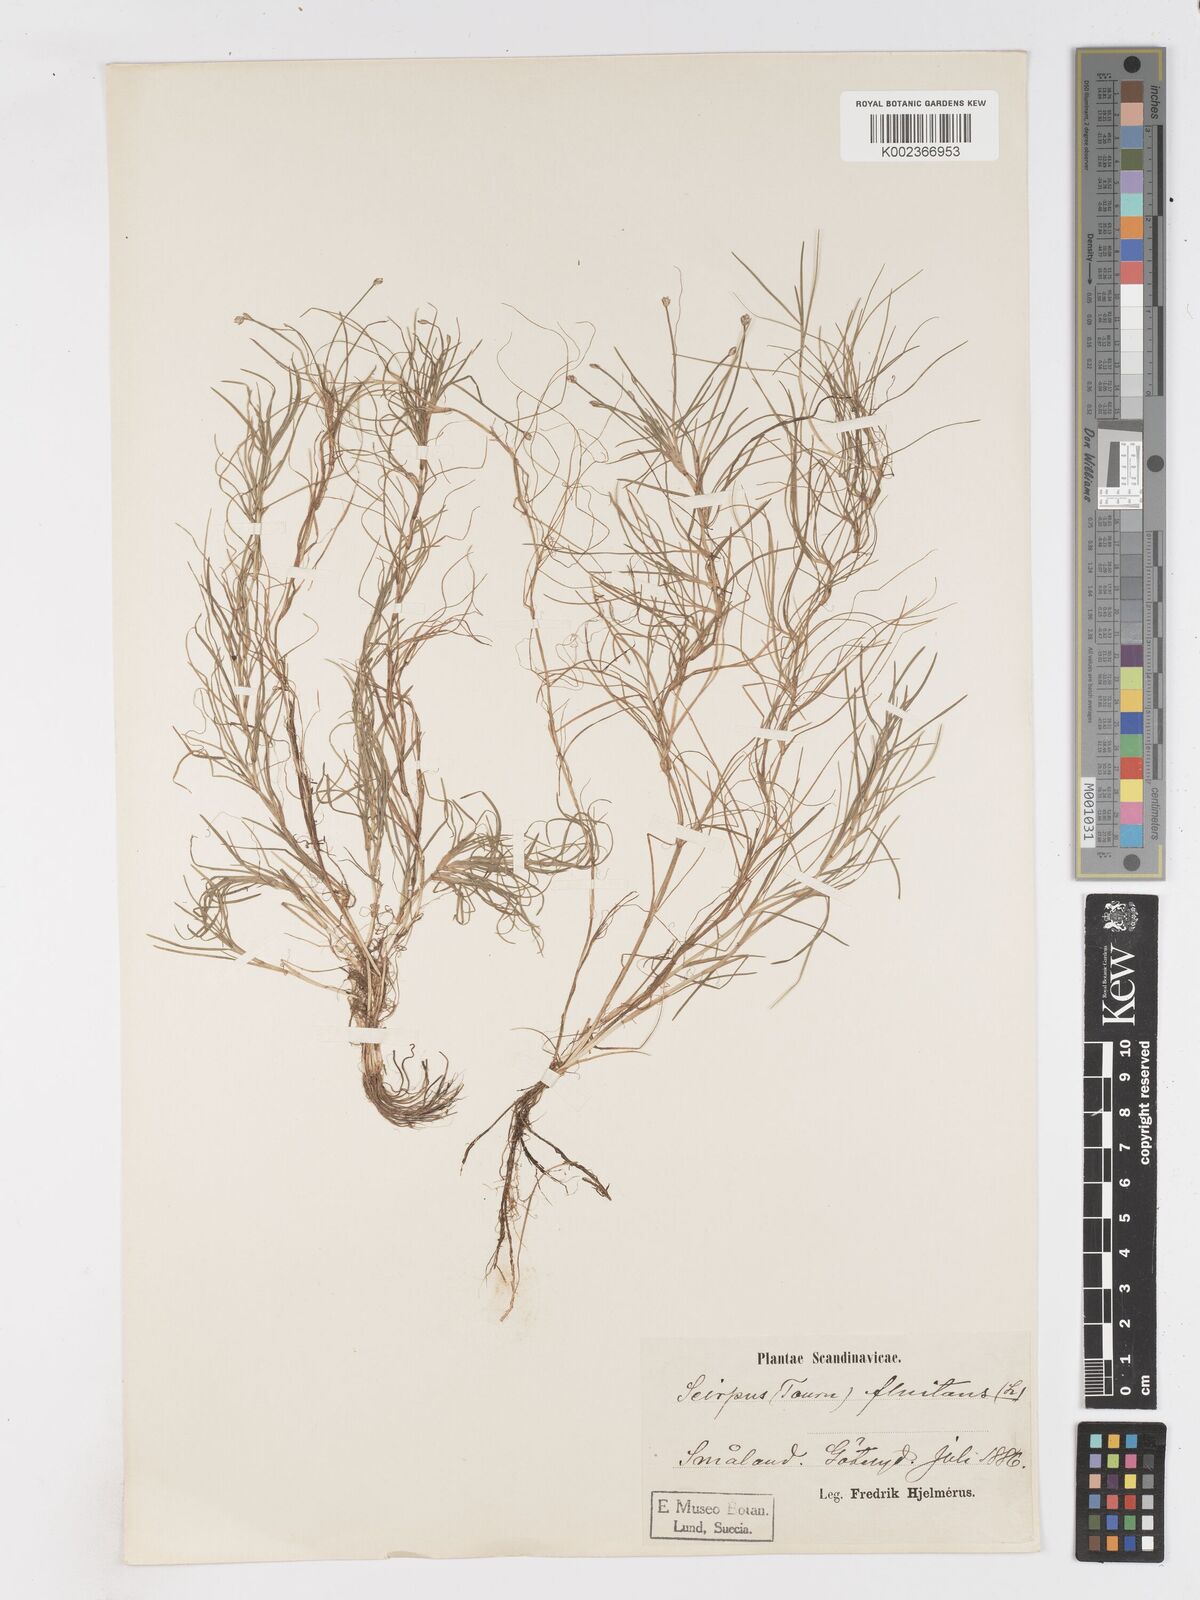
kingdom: Plantae
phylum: Tracheophyta
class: Liliopsida
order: Poales
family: Cyperaceae
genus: Isolepis
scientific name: Isolepis fluitans
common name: Floating club-rush
